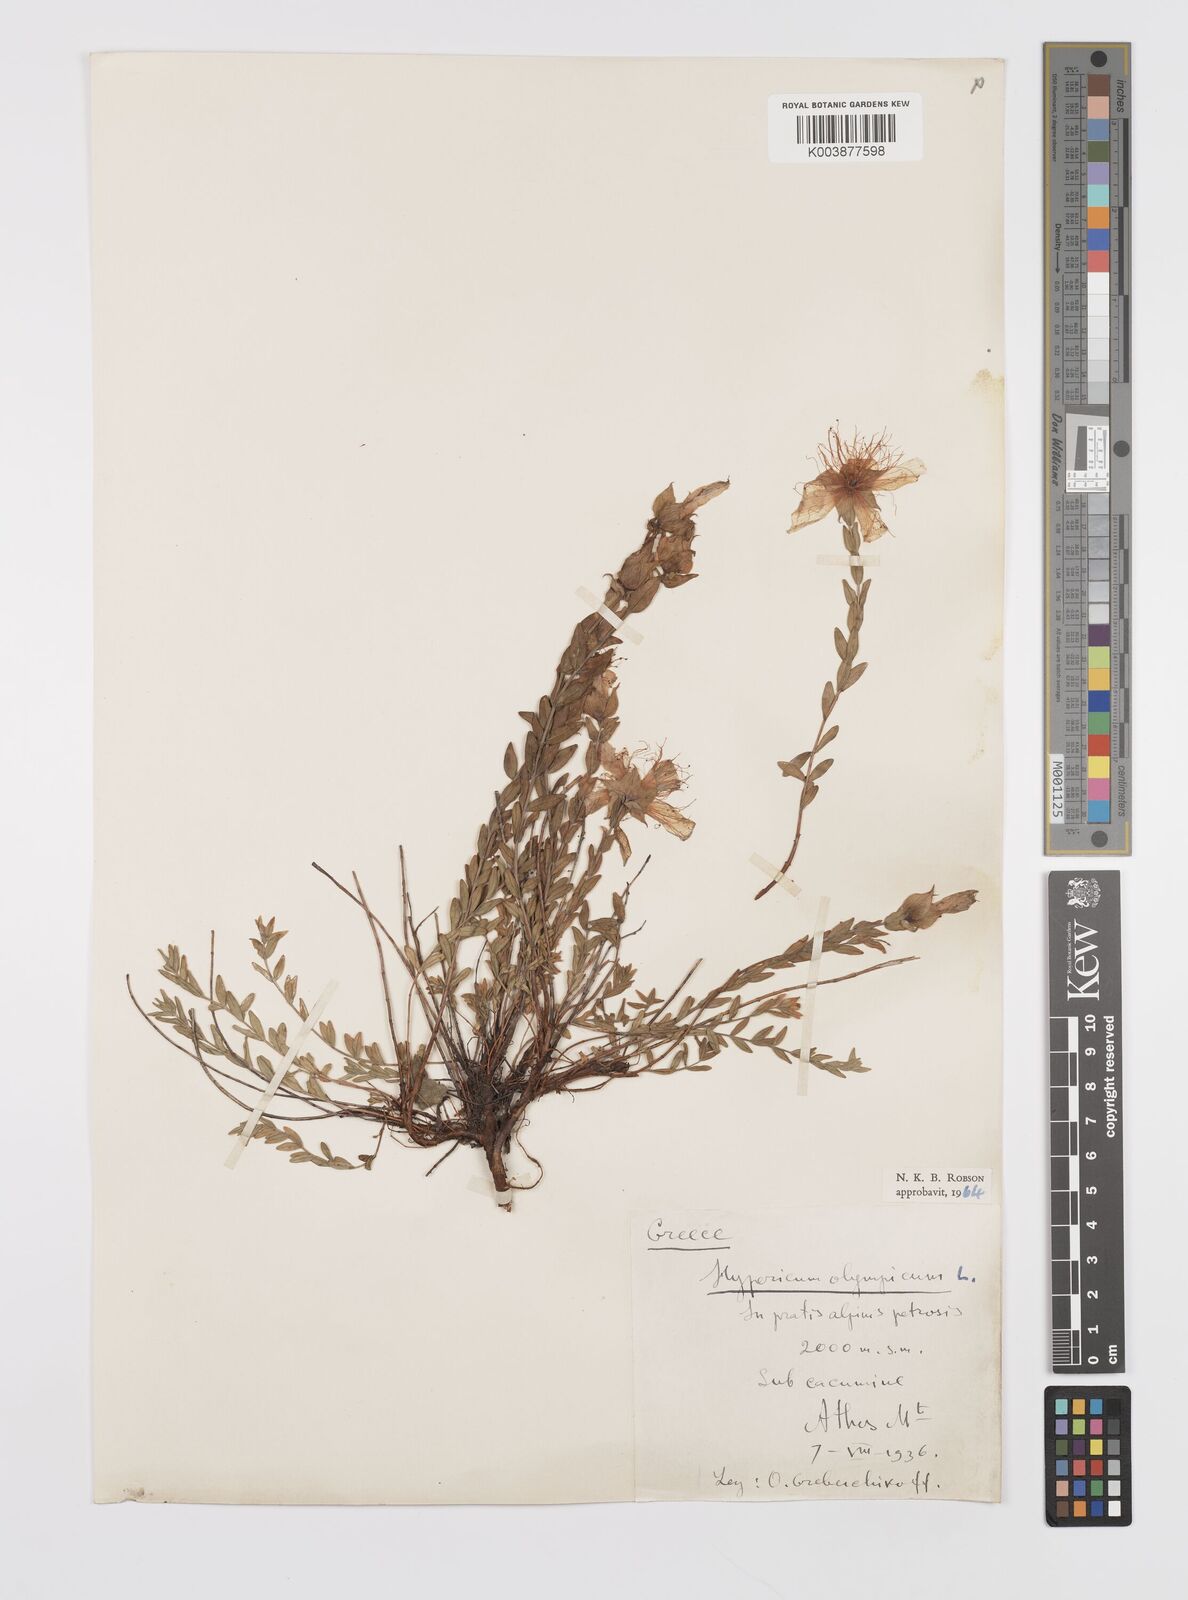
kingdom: Plantae
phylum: Tracheophyta
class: Magnoliopsida
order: Malpighiales
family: Hypericaceae
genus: Hypericum
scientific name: Hypericum olympicum
